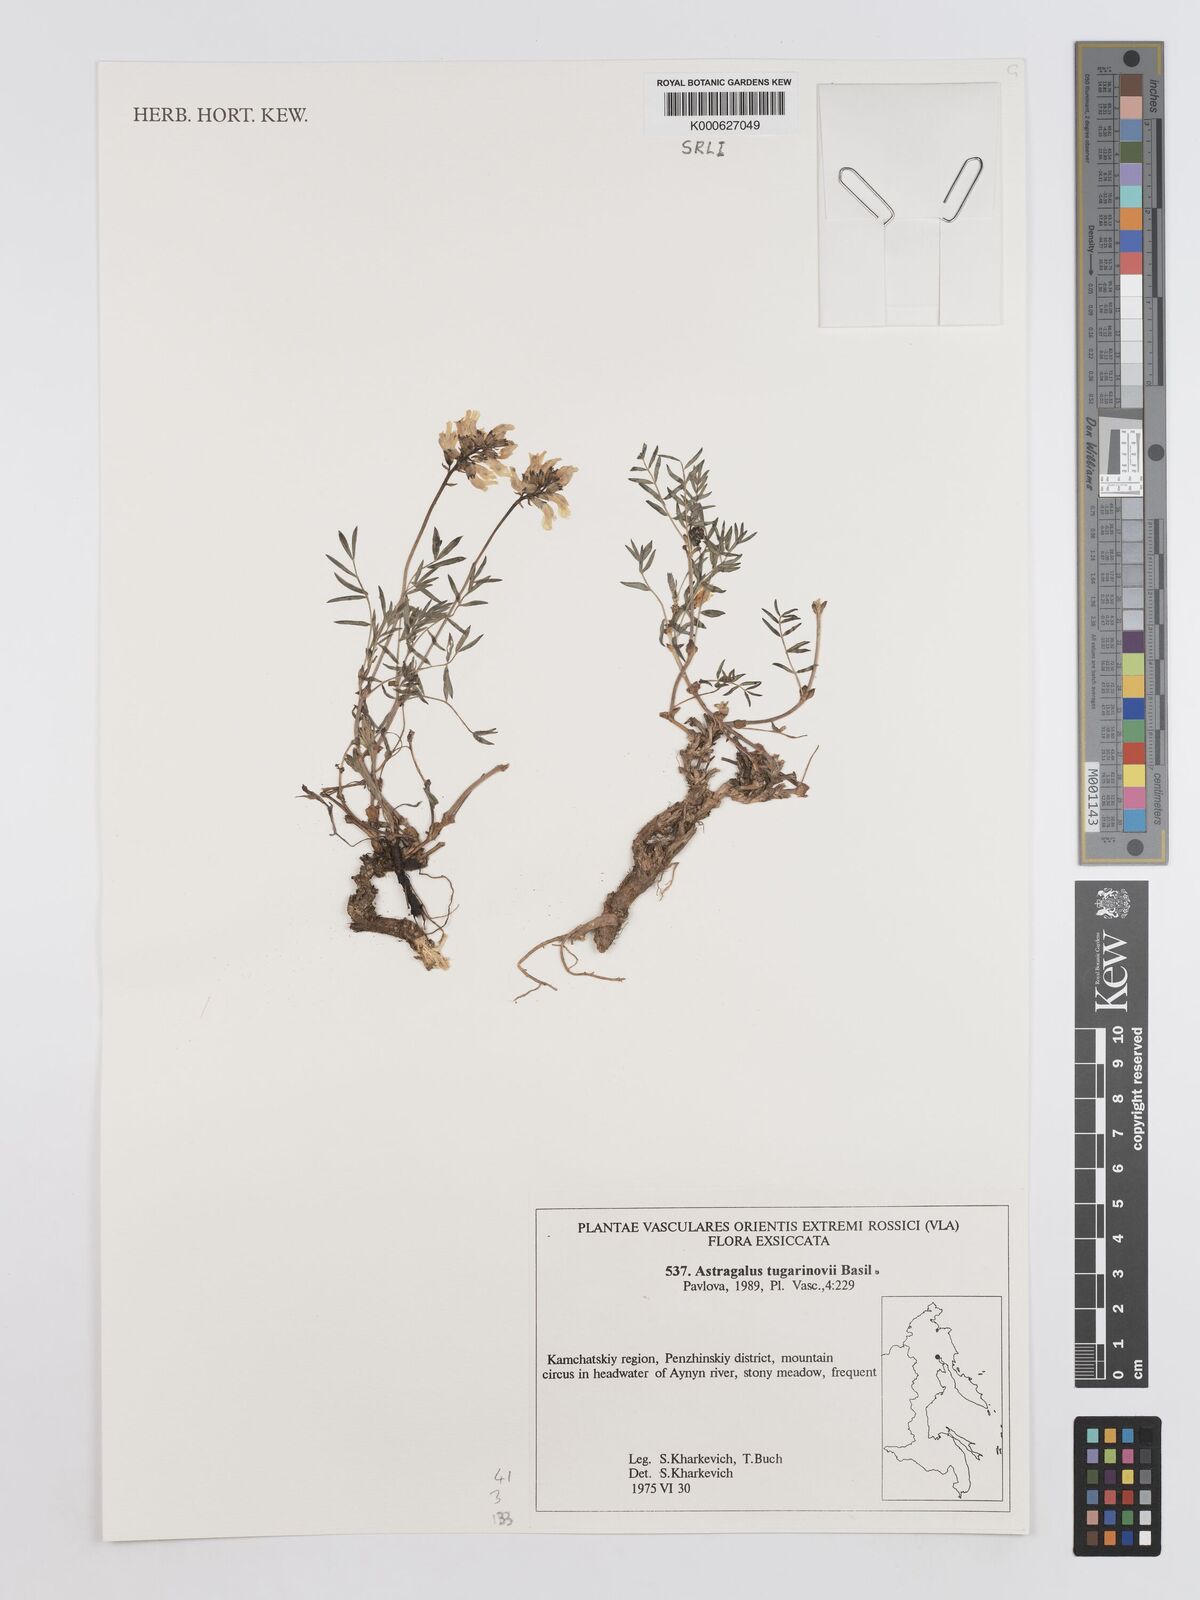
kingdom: Plantae
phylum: Tracheophyta
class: Magnoliopsida
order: Fabales
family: Fabaceae
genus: Astragalus
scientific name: Astragalus tugarinovii
